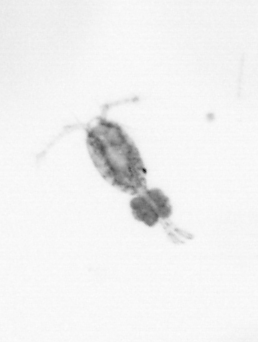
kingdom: Animalia
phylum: Arthropoda
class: Copepoda
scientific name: Copepoda
